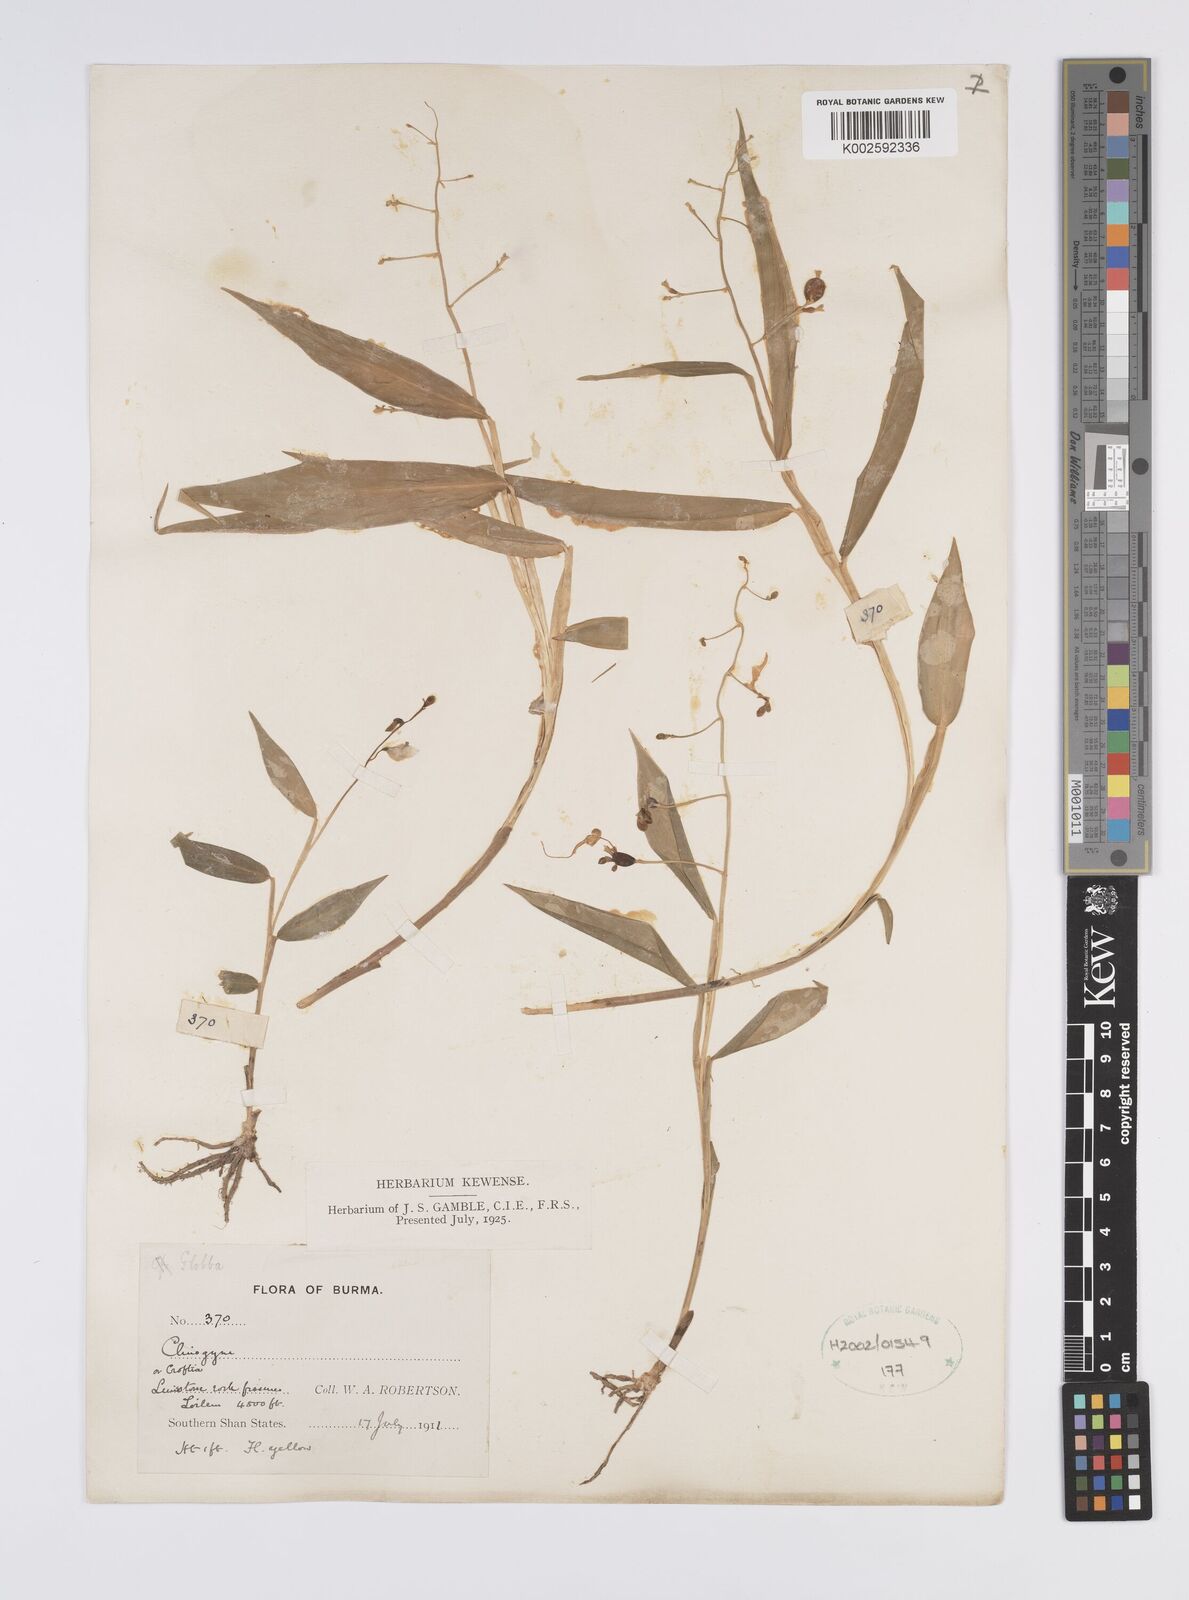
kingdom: Plantae
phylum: Tracheophyta
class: Liliopsida
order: Zingiberales
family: Zingiberaceae
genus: Globba
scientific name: Globba
